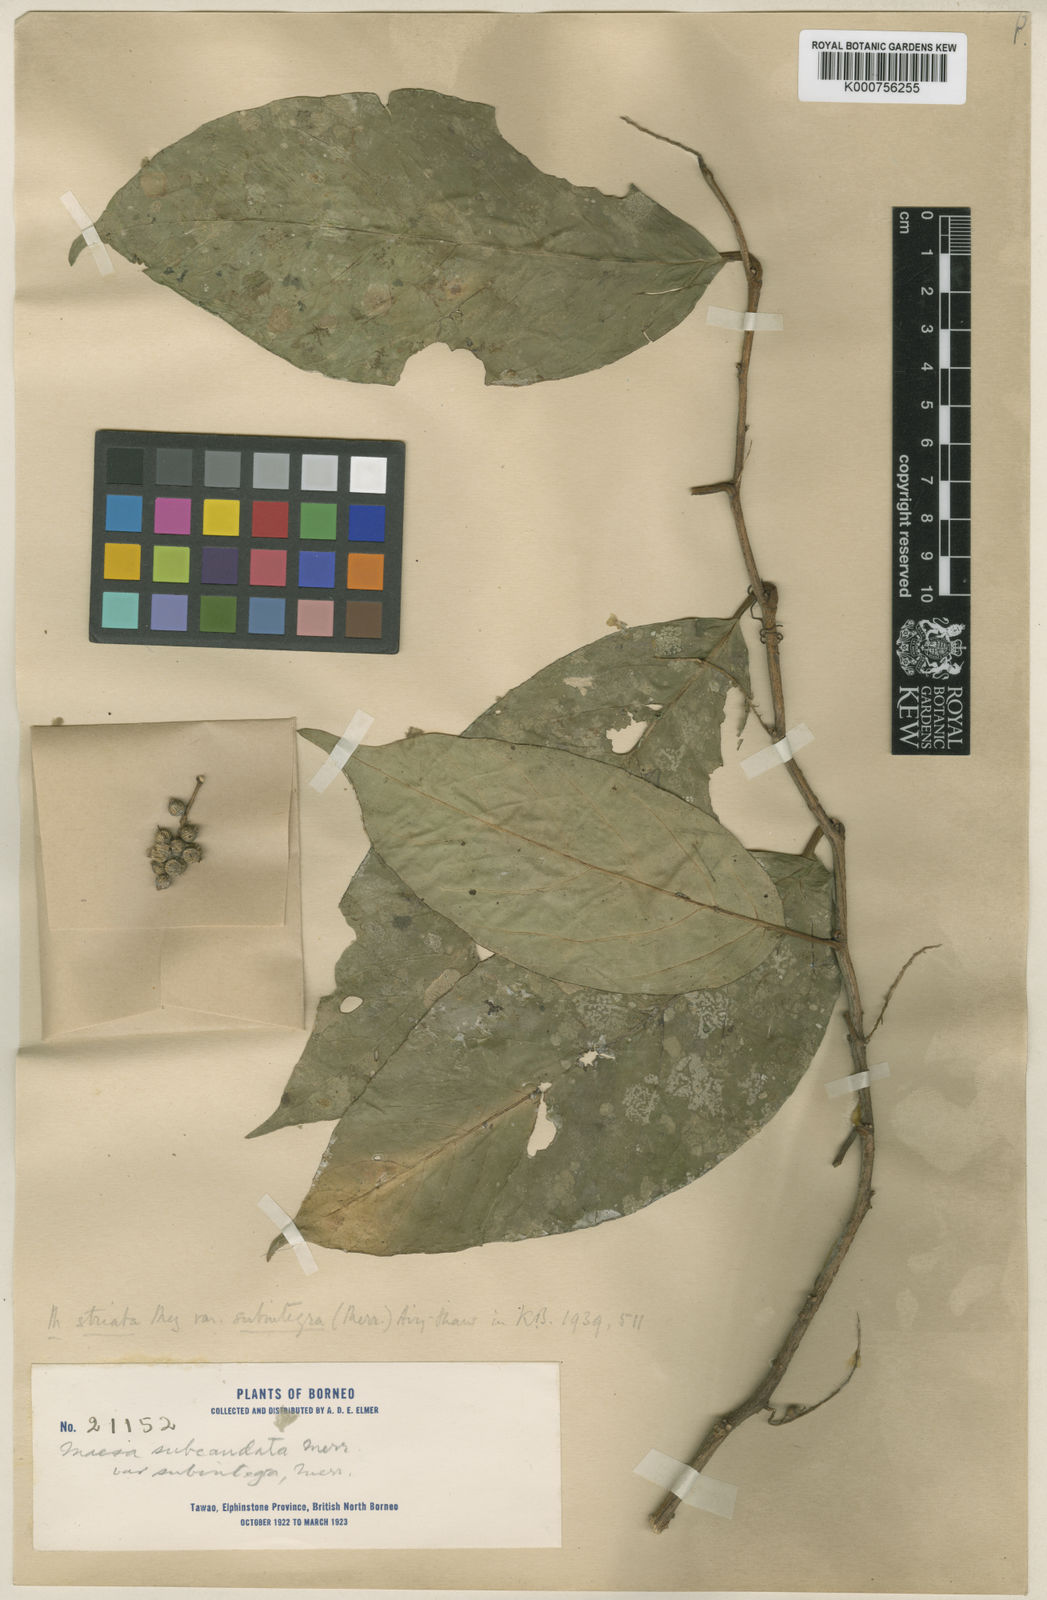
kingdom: Plantae
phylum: Tracheophyta
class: Magnoliopsida
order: Ericales
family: Primulaceae
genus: Maesa
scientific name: Maesa macrocarpa
